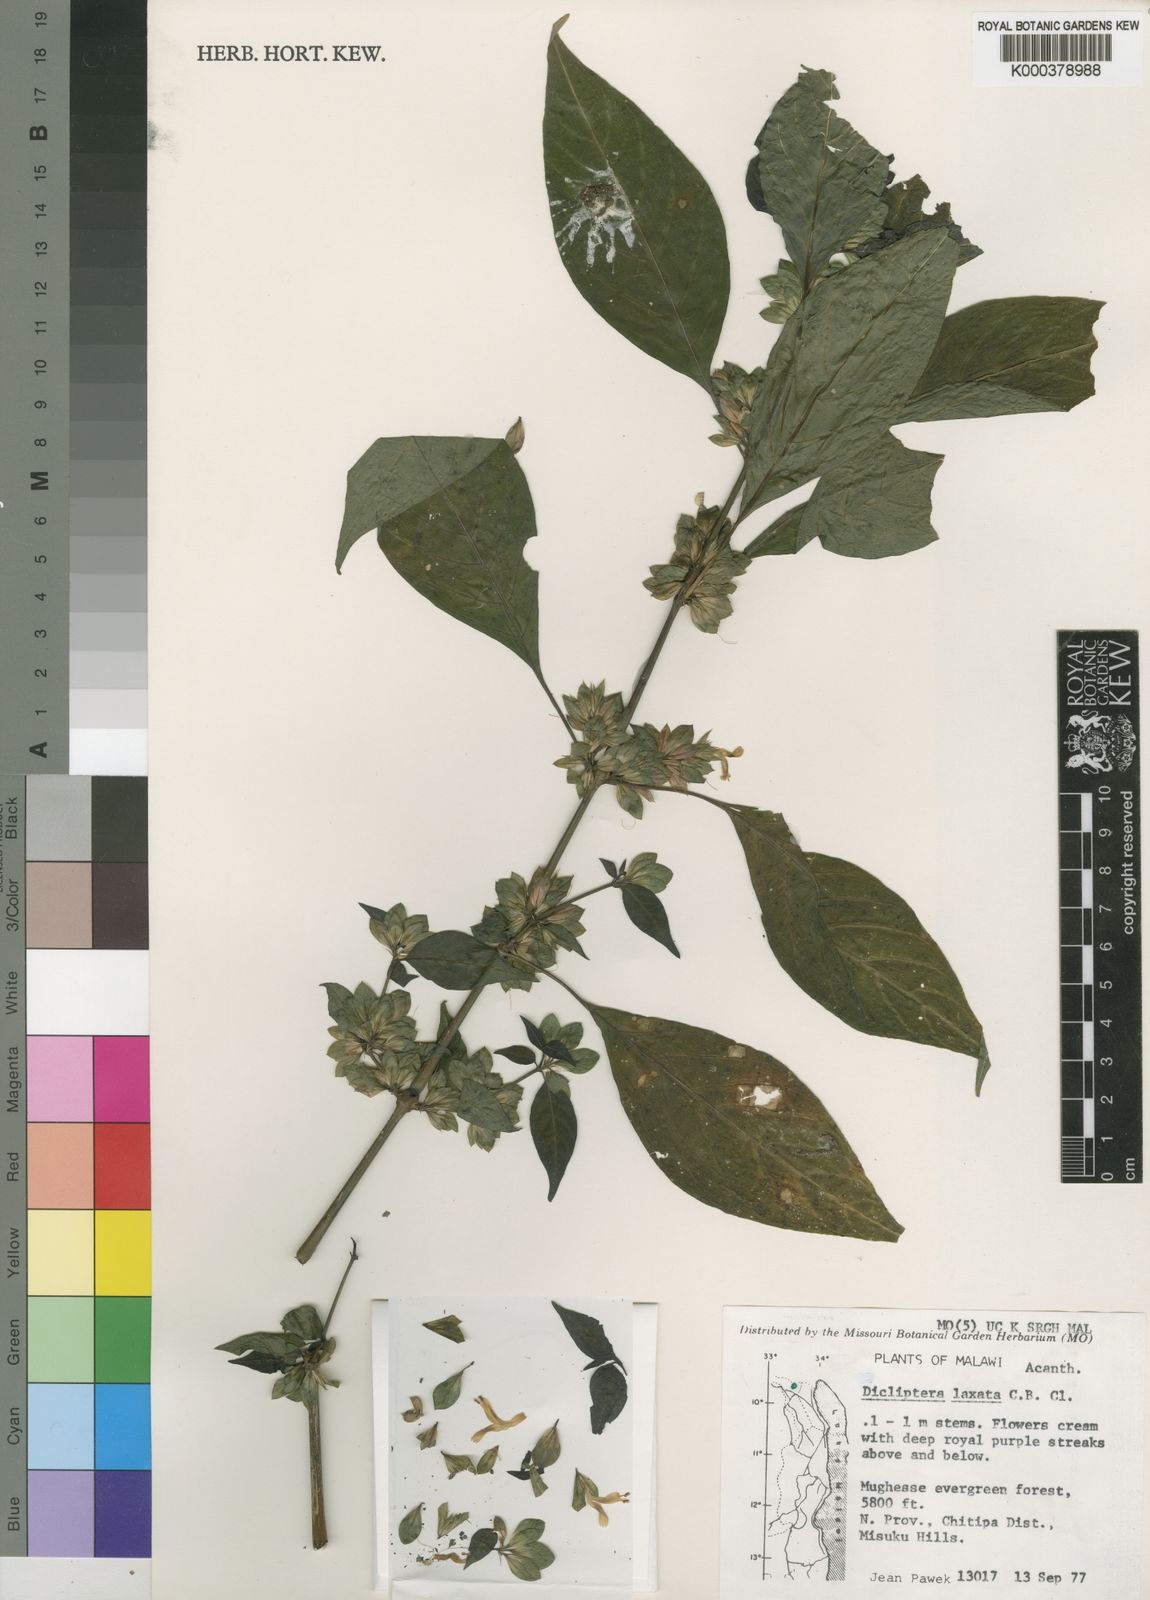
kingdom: Plantae
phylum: Tracheophyta
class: Magnoliopsida
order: Lamiales
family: Acanthaceae
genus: Dicliptera
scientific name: Dicliptera laxata
